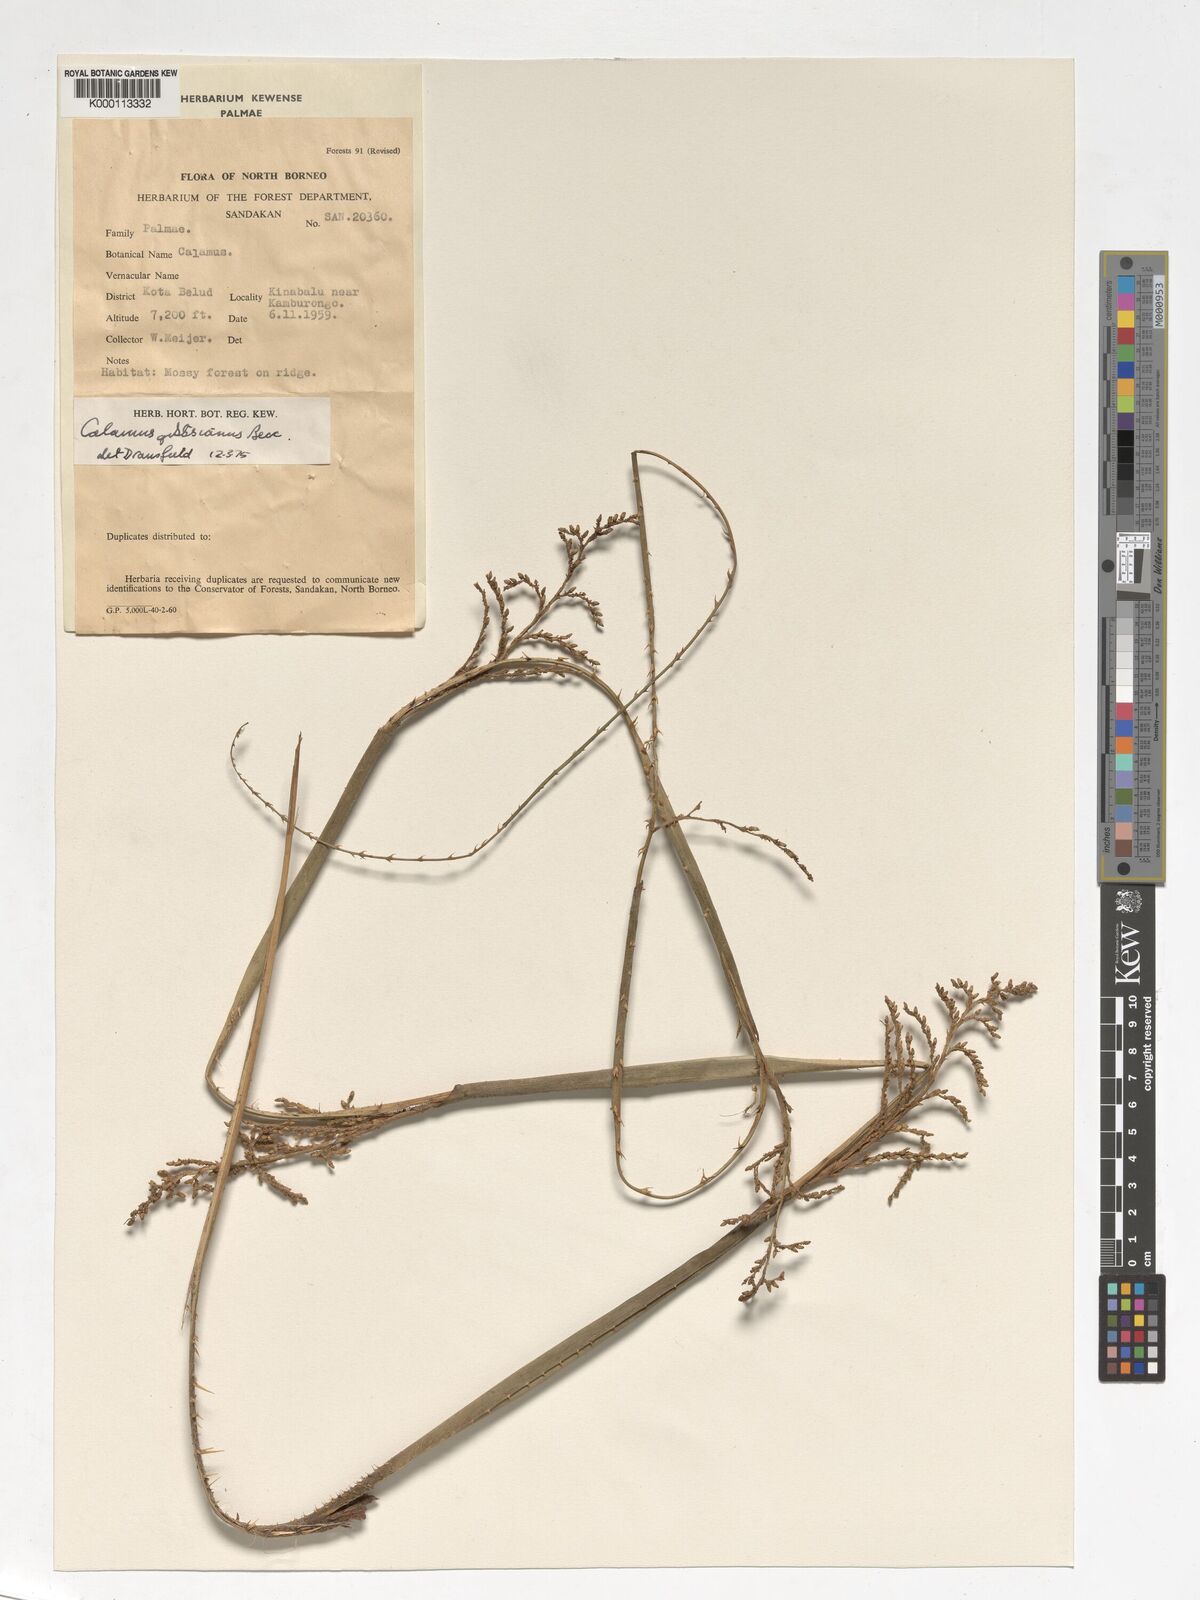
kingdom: Plantae
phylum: Tracheophyta
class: Liliopsida
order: Arecales
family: Arecaceae
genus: Calamus
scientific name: Calamus gibbsianus
